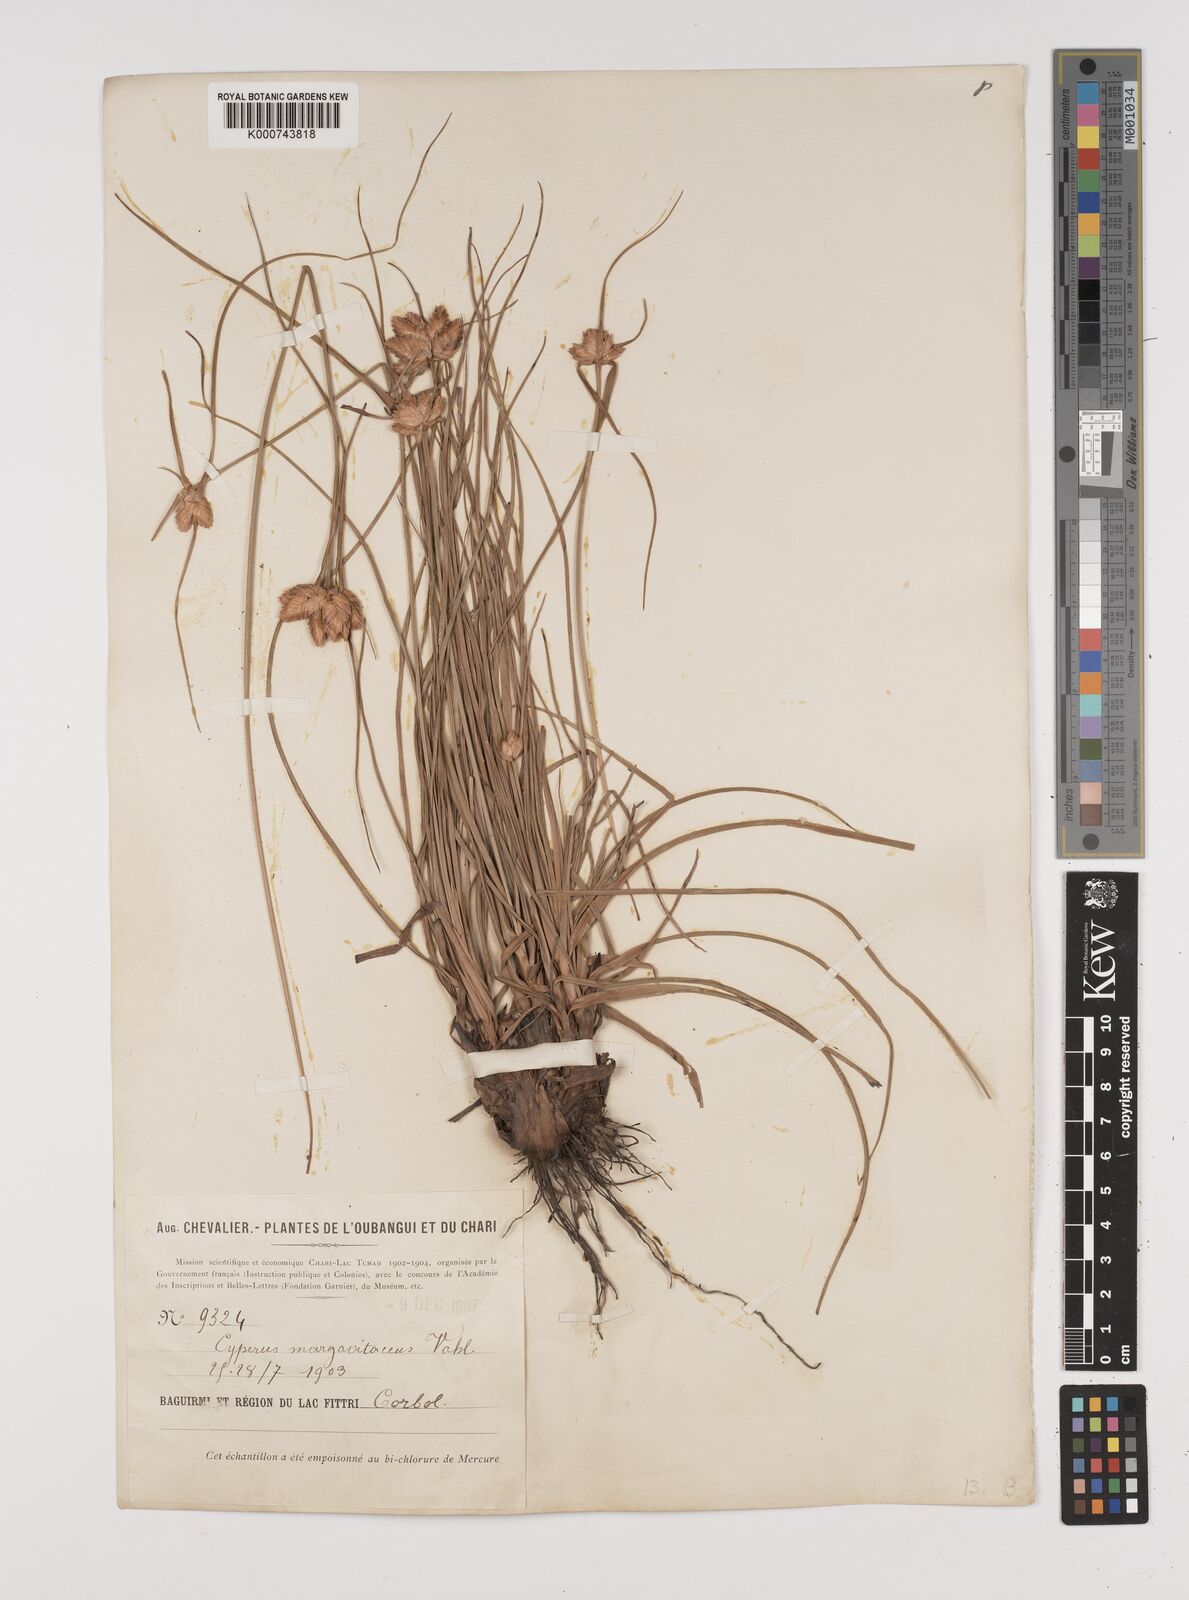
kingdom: Plantae
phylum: Tracheophyta
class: Liliopsida
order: Poales
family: Cyperaceae
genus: Cyperus
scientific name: Cyperus margaritaceus
